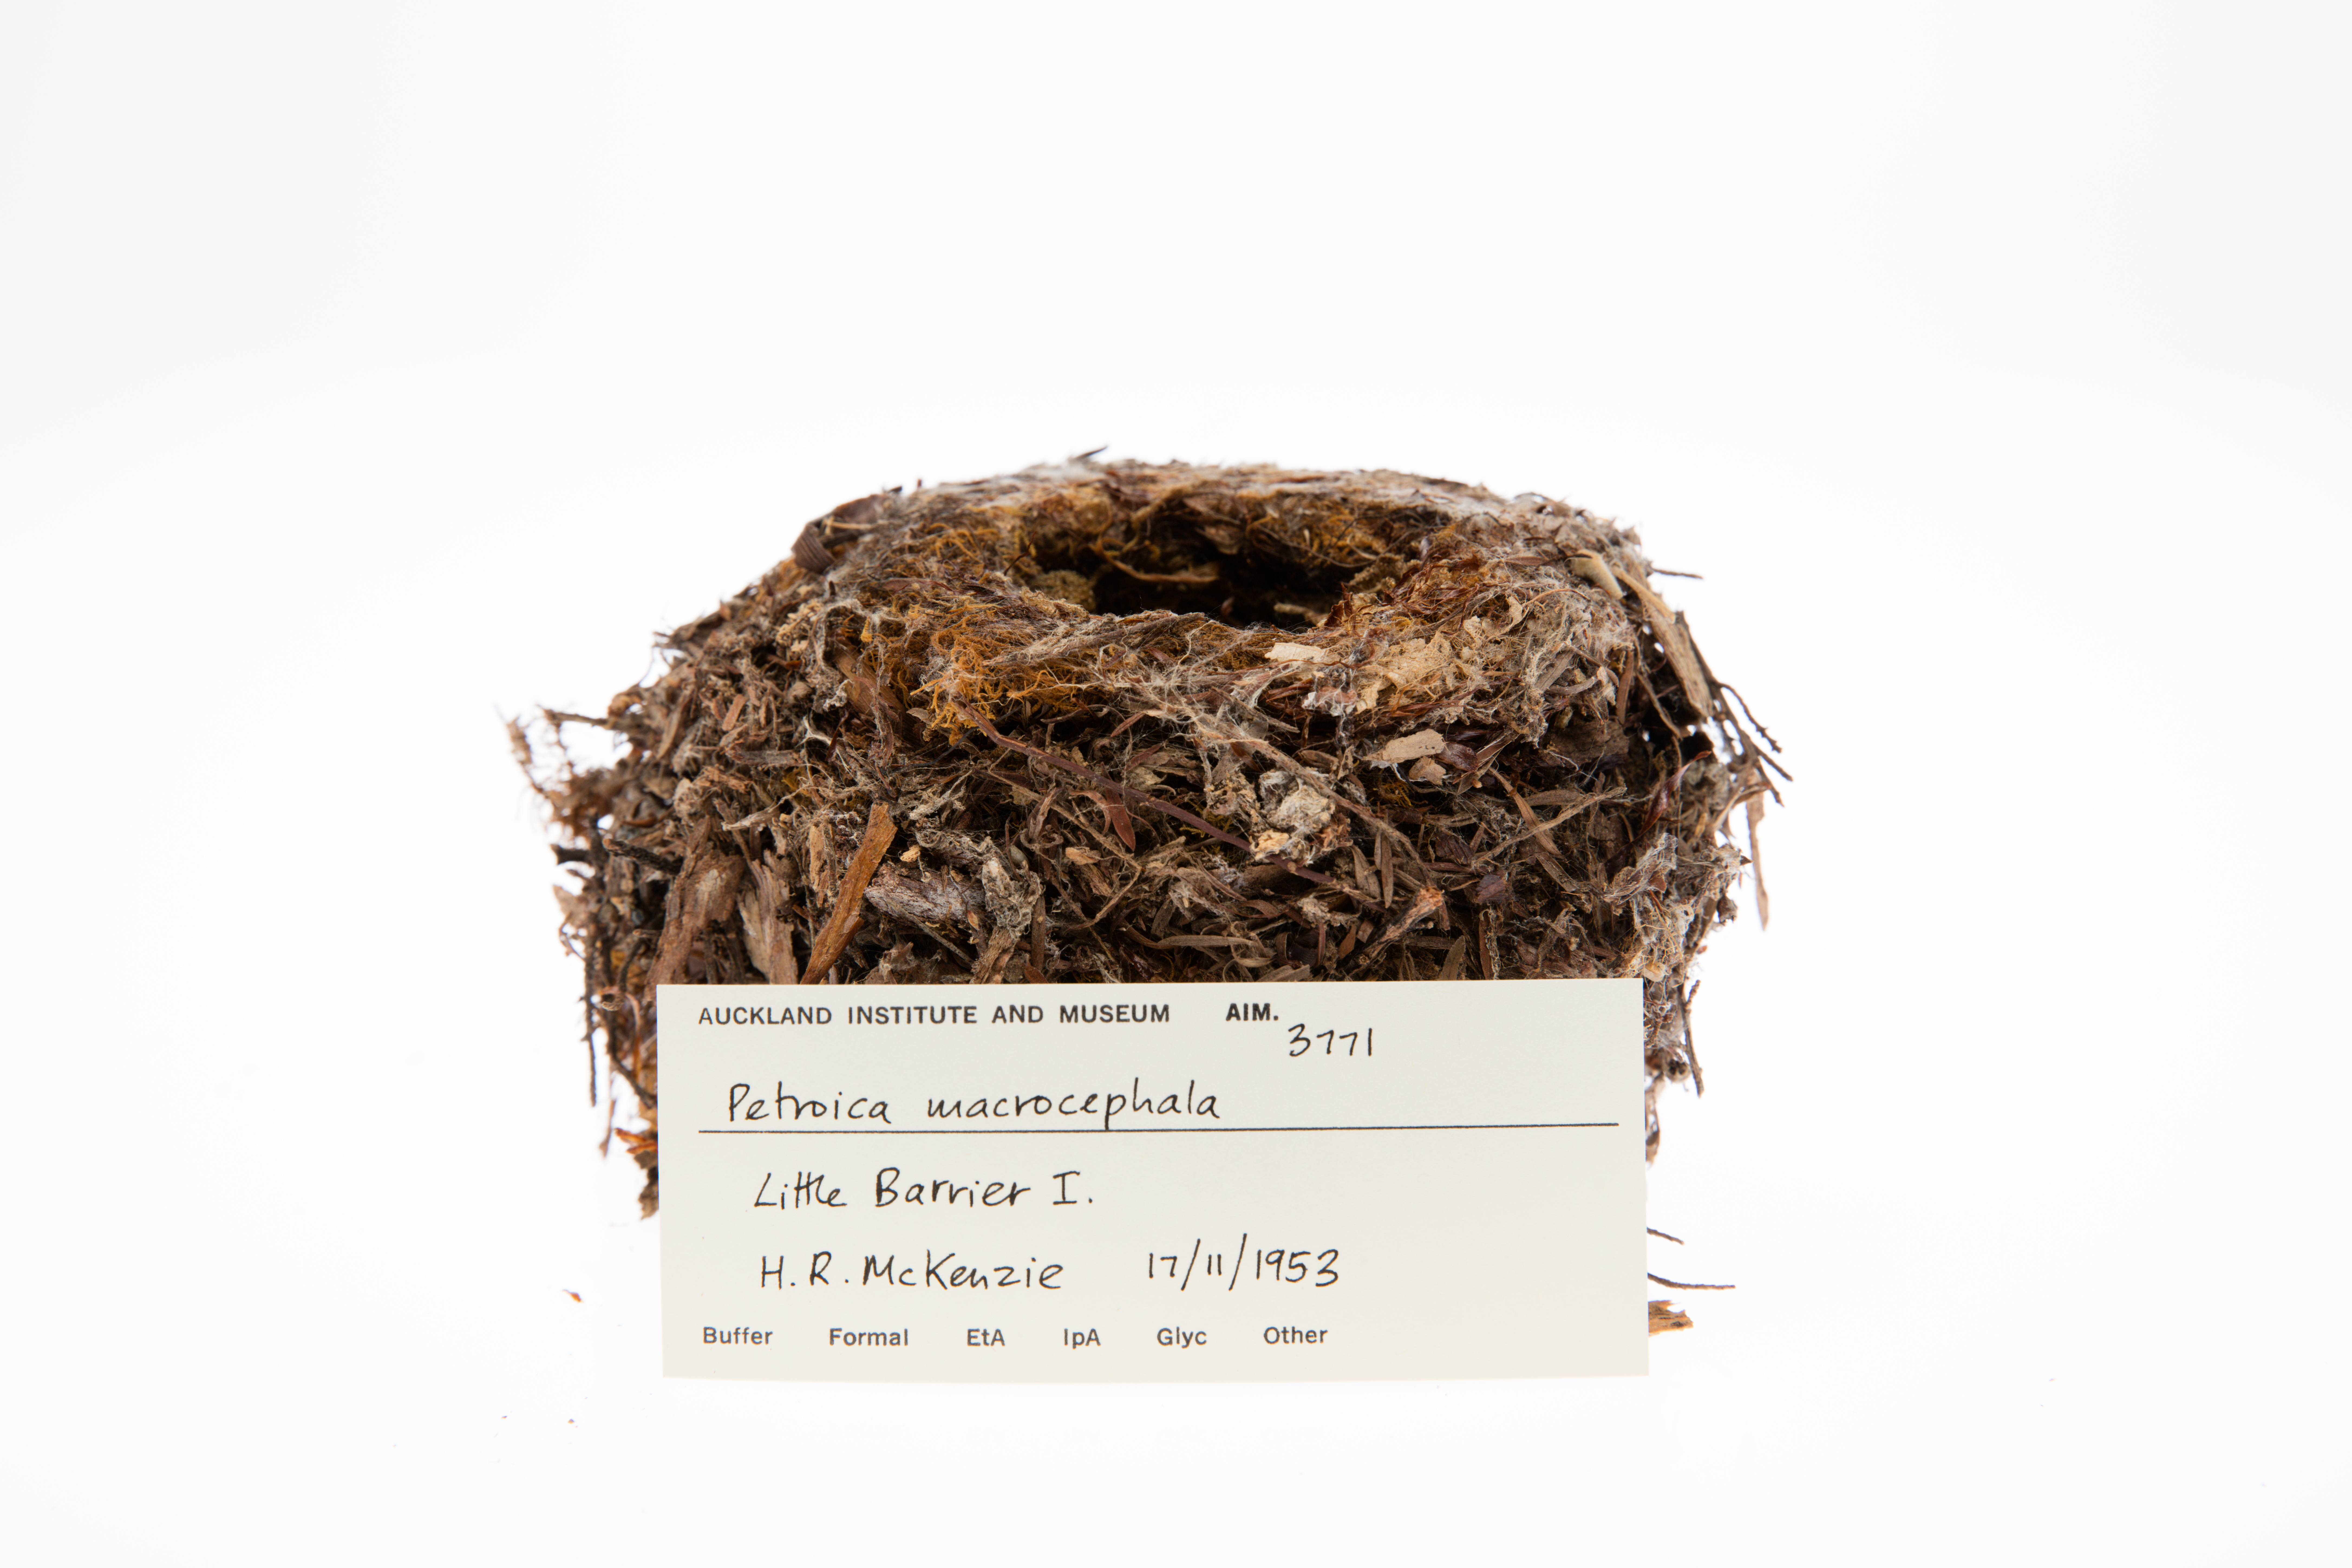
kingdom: Animalia
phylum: Chordata
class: Aves
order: Passeriformes
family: Petroicidae
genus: Petroica
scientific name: Petroica macrocephala
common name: Tomtit
